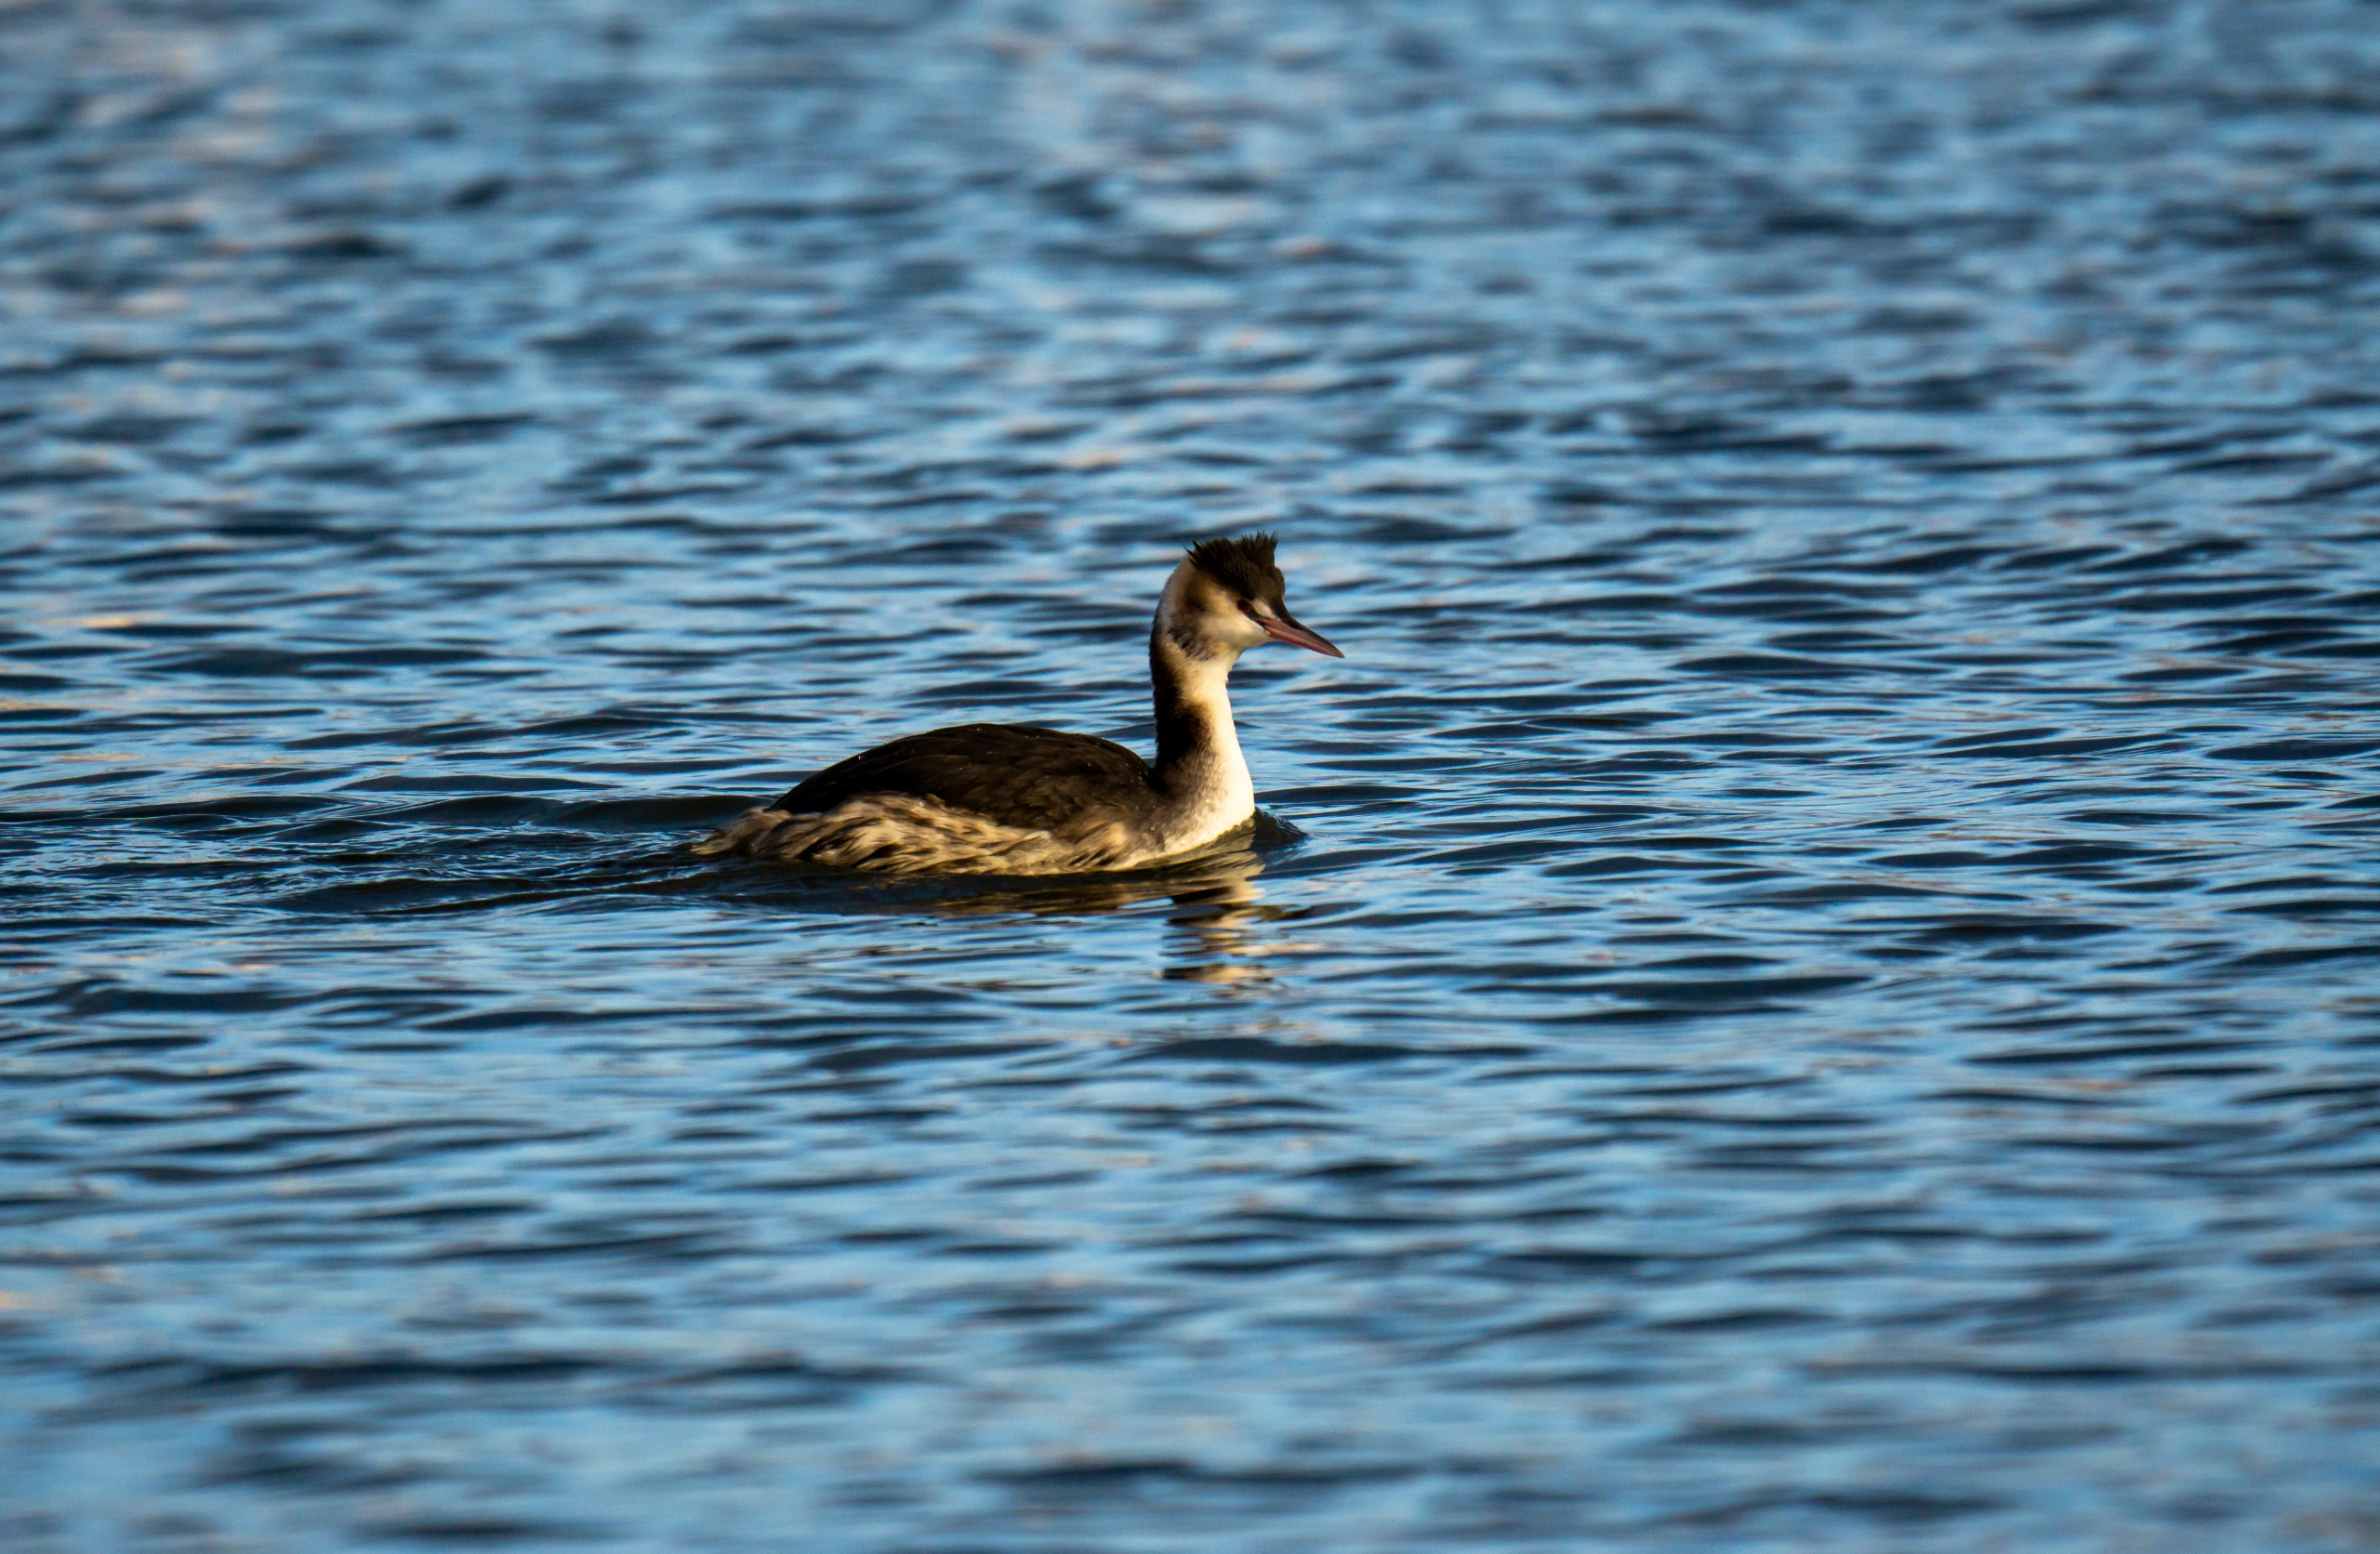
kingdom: Animalia
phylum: Chordata
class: Aves
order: Podicipediformes
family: Podicipedidae
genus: Podiceps
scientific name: Podiceps cristatus
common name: Toppet lappedykker
